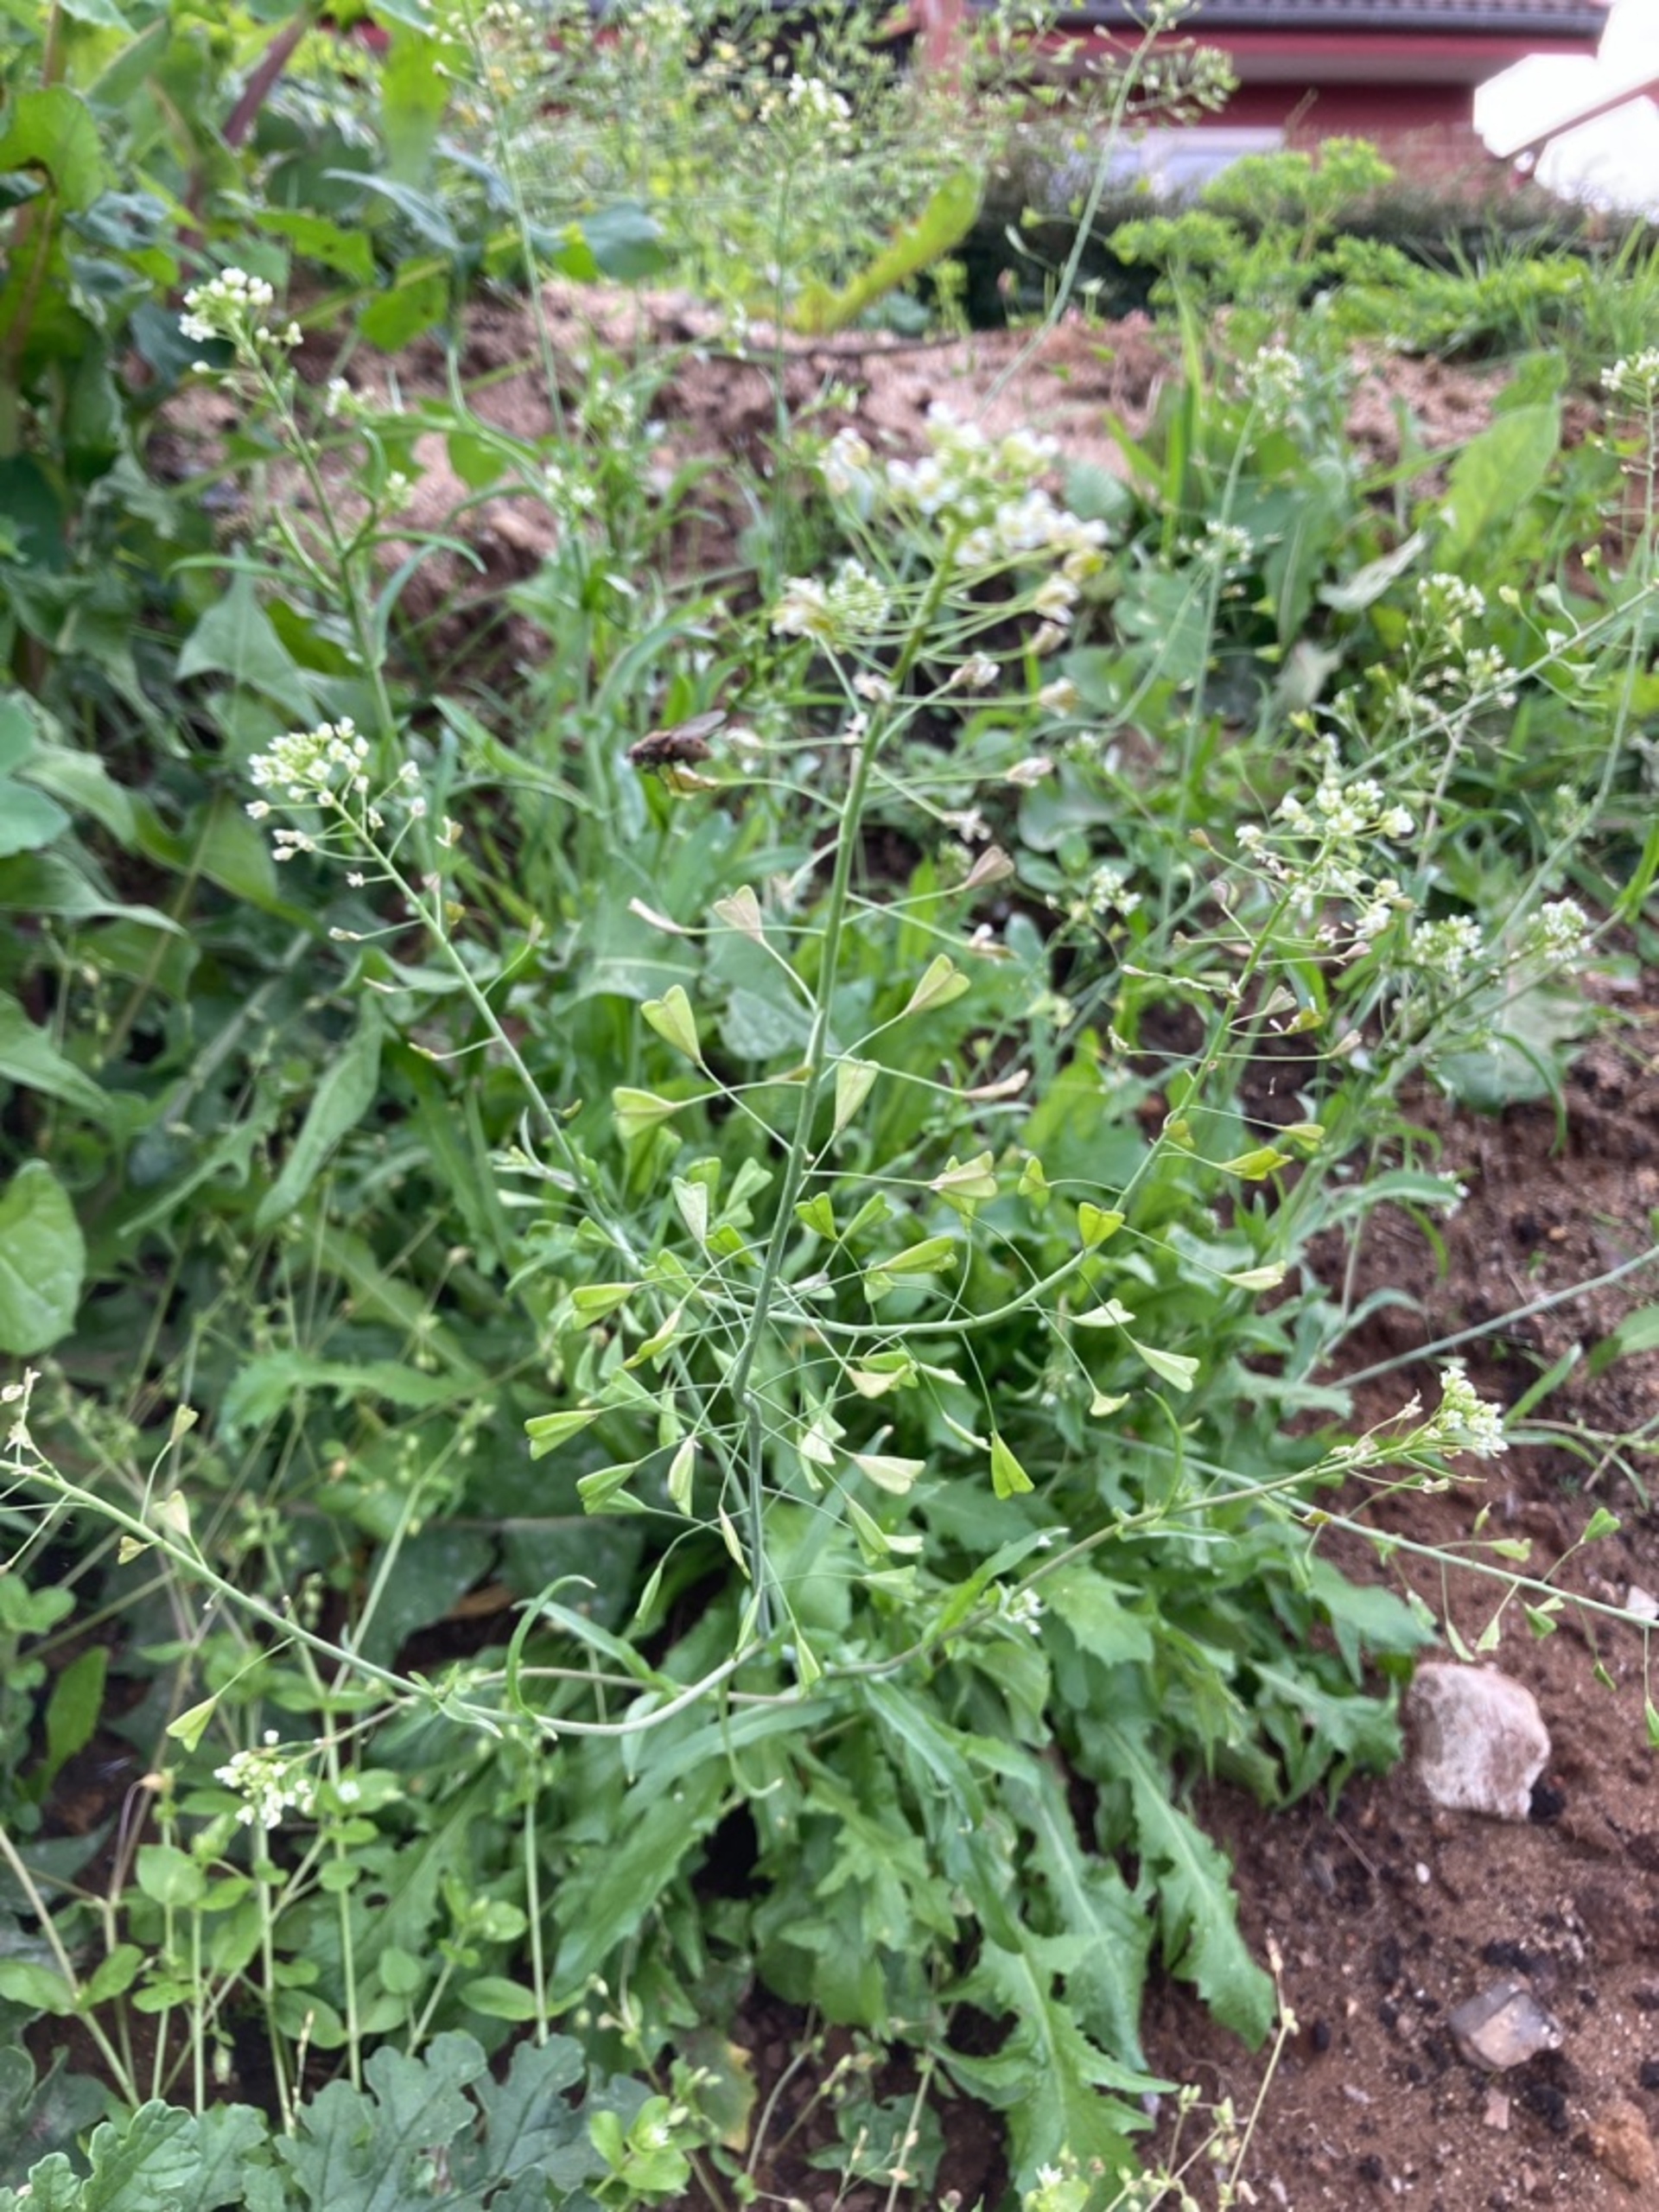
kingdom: Plantae
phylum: Tracheophyta
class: Magnoliopsida
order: Brassicales
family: Brassicaceae
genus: Capsella
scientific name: Capsella bursa-pastoris
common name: Hyrdetaske
